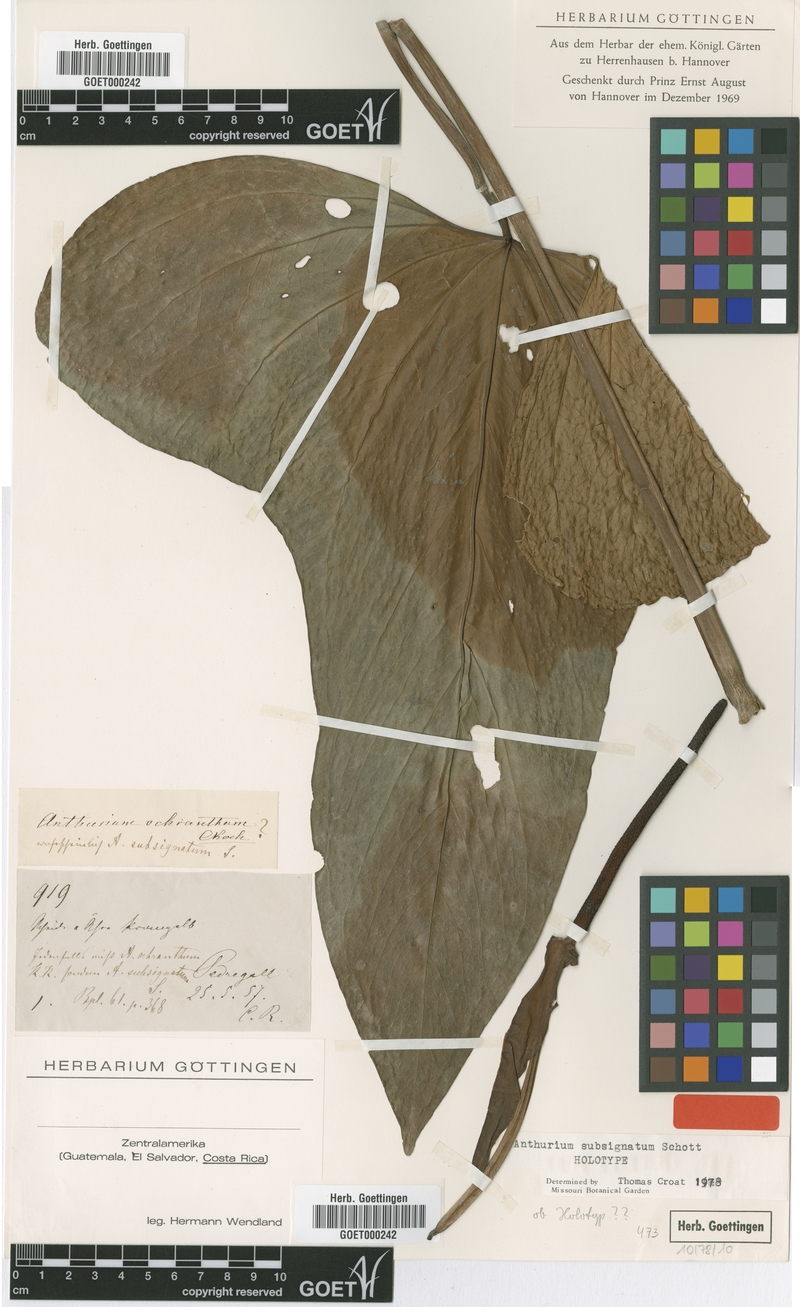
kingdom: Plantae
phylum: Tracheophyta
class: Liliopsida
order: Alismatales
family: Araceae
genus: Anthurium
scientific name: Anthurium subsignatum
